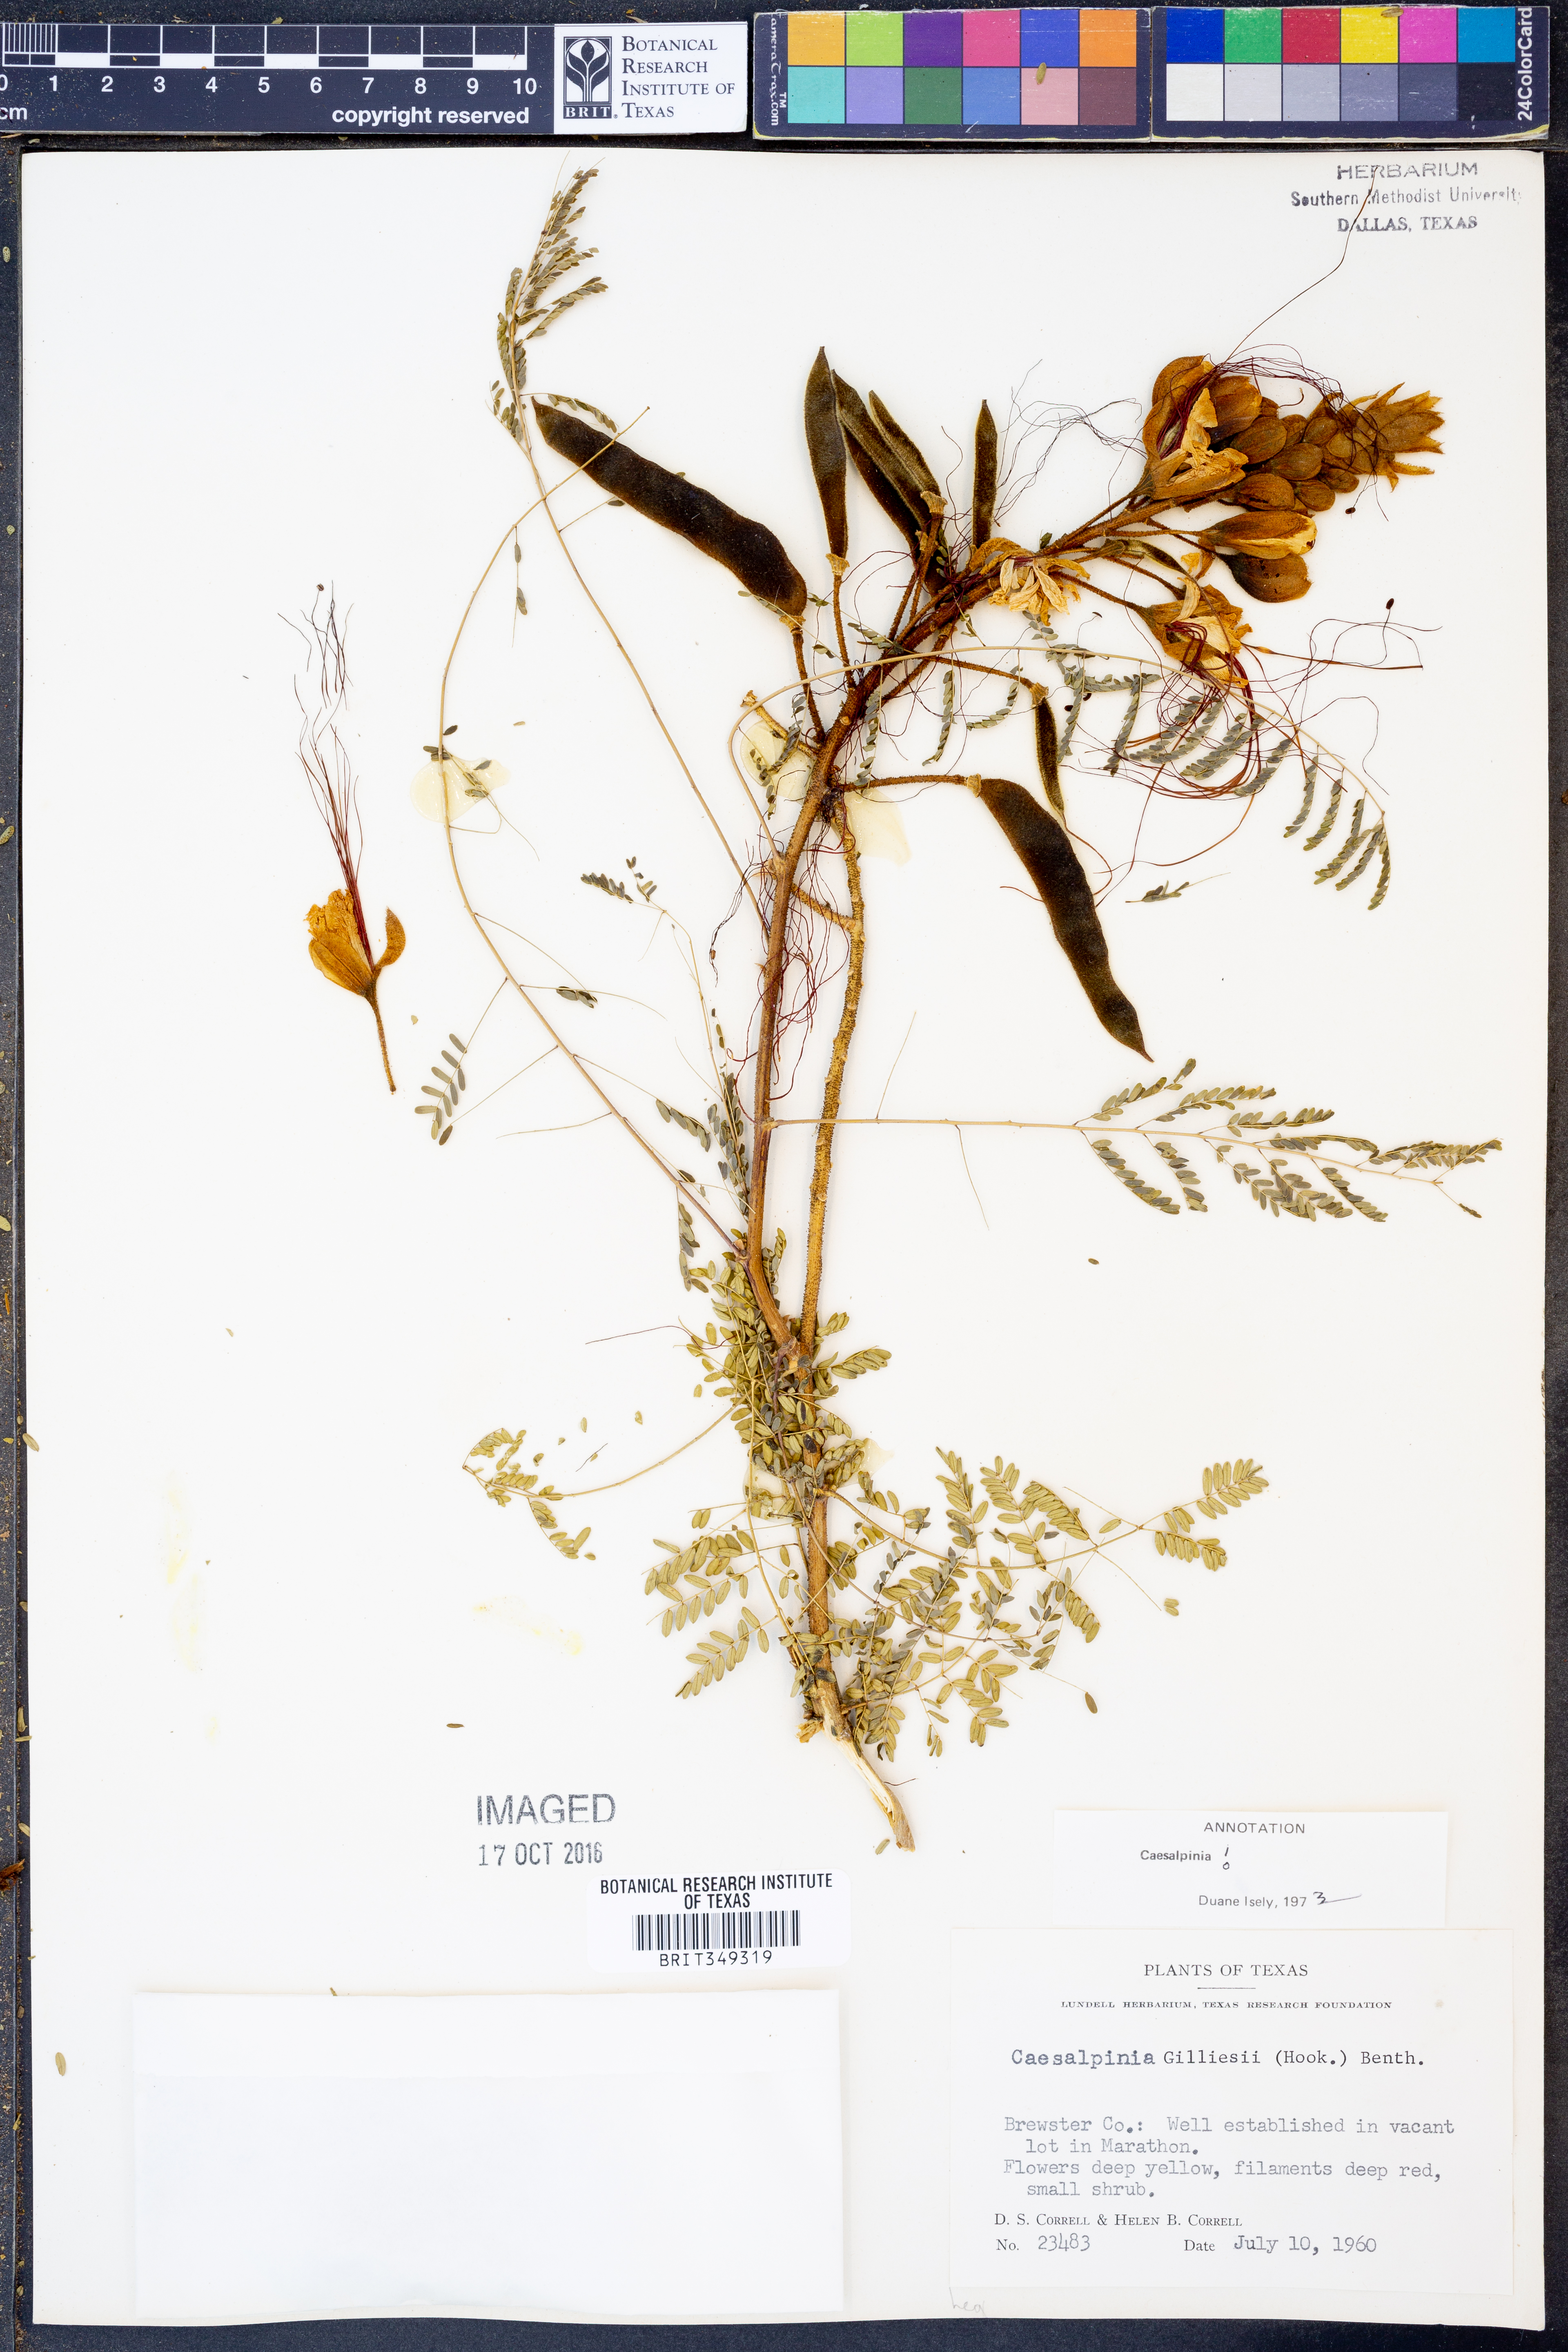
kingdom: Plantae
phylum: Tracheophyta
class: Magnoliopsida
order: Fabales
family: Fabaceae
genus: Erythrostemon
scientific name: Erythrostemon gilliesii
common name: Bird-of-paradise shrub
